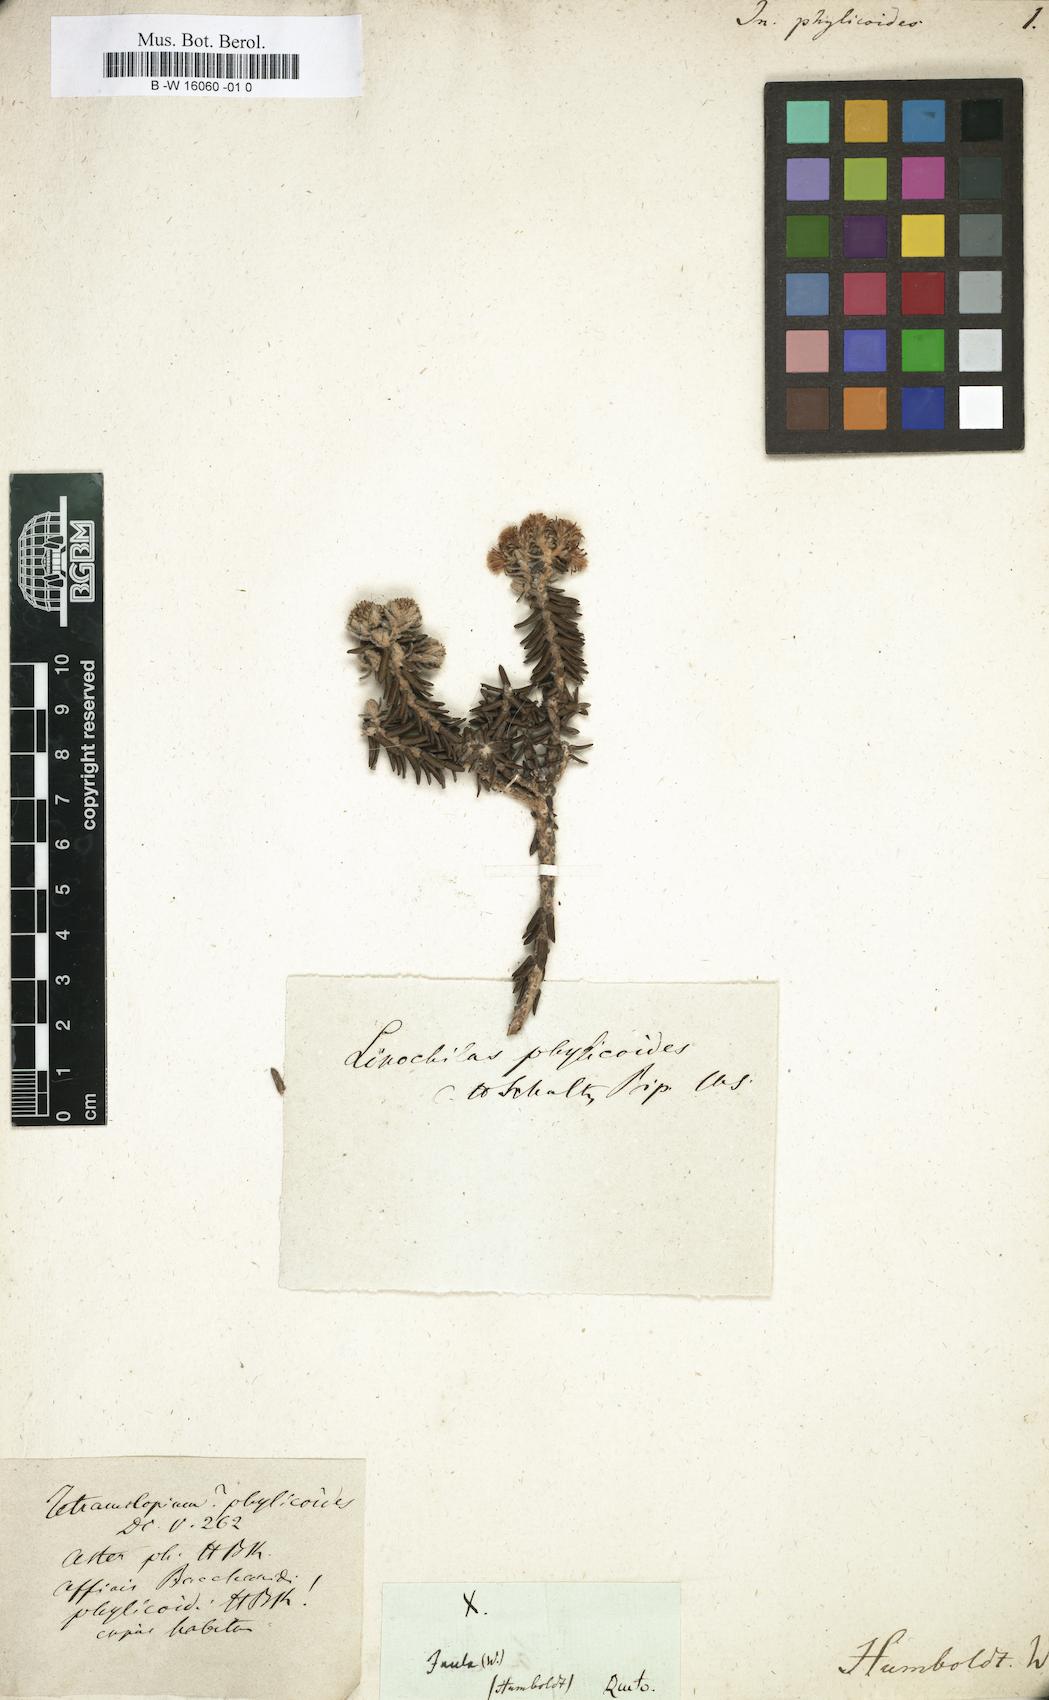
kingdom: Plantae
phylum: Tracheophyta
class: Magnoliopsida
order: Asterales
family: Asteraceae
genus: Linochilus
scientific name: Linochilus phylicoides
